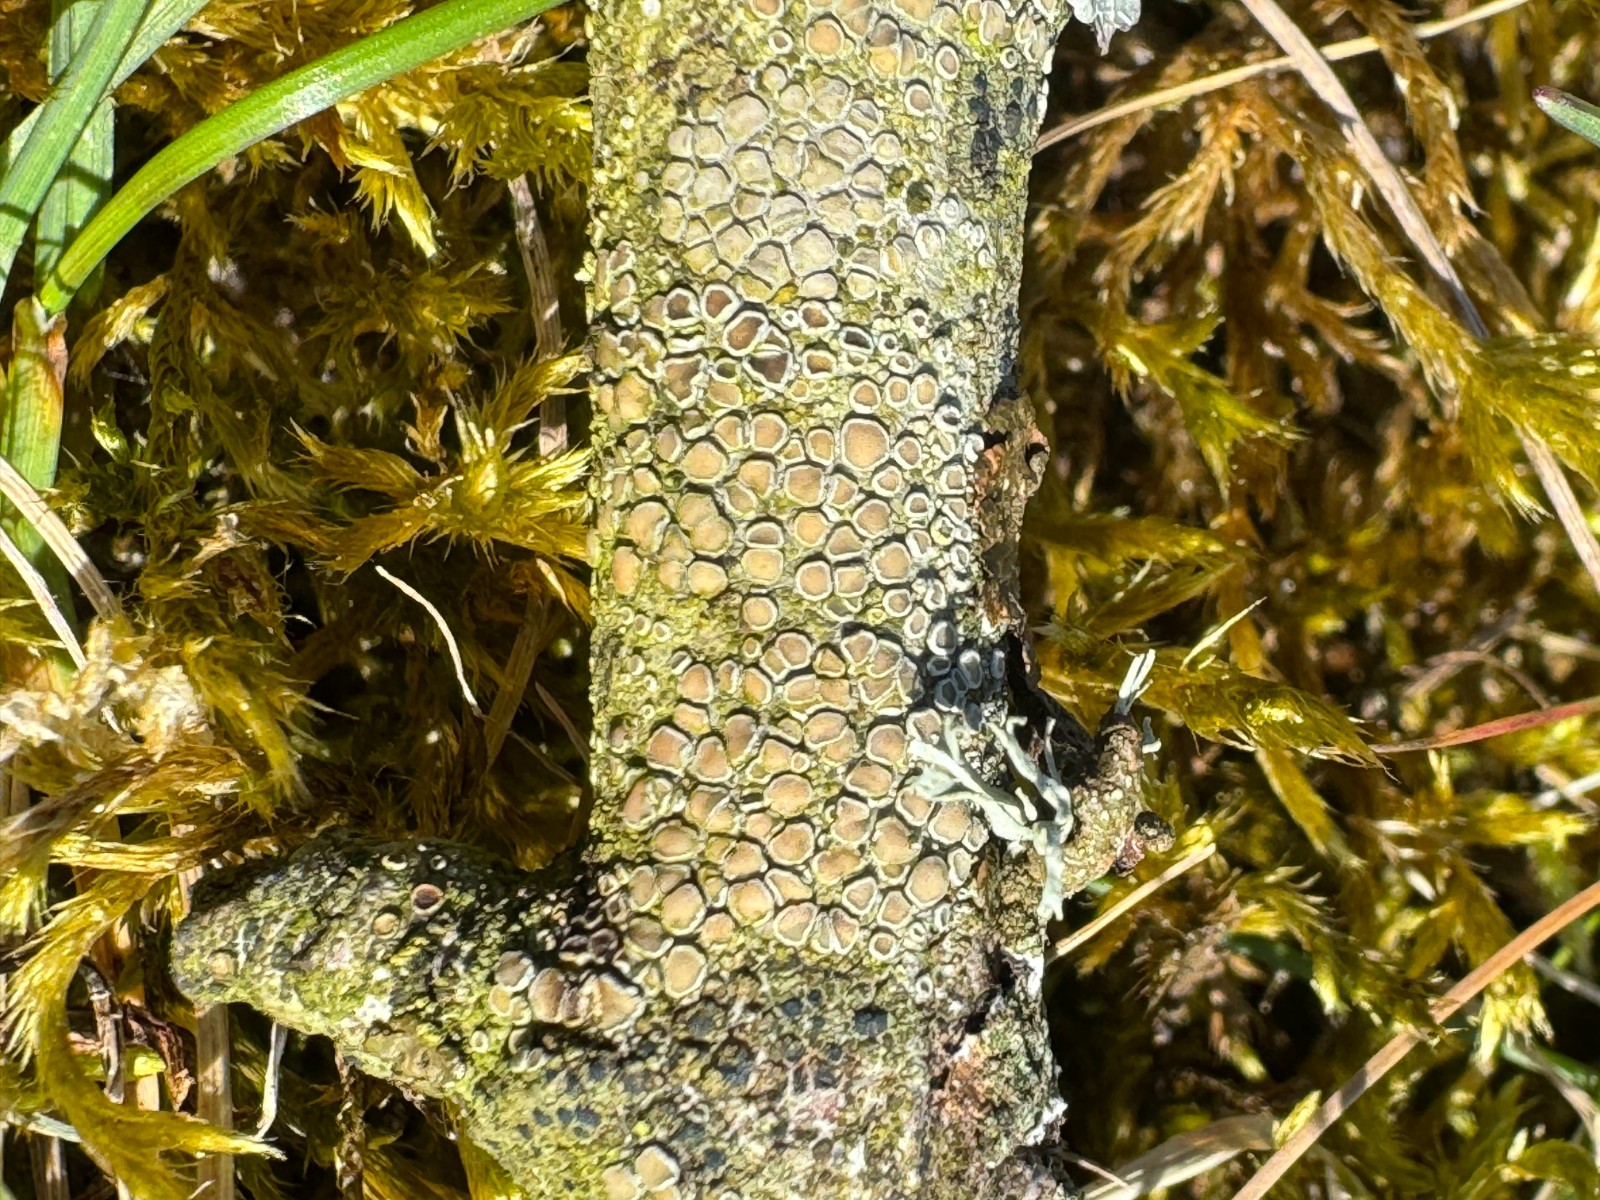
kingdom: Fungi
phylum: Ascomycota
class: Lecanoromycetes
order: Lecanorales
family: Lecanoraceae
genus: Lecanora
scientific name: Lecanora chlarotera
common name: brun kantskivelav
